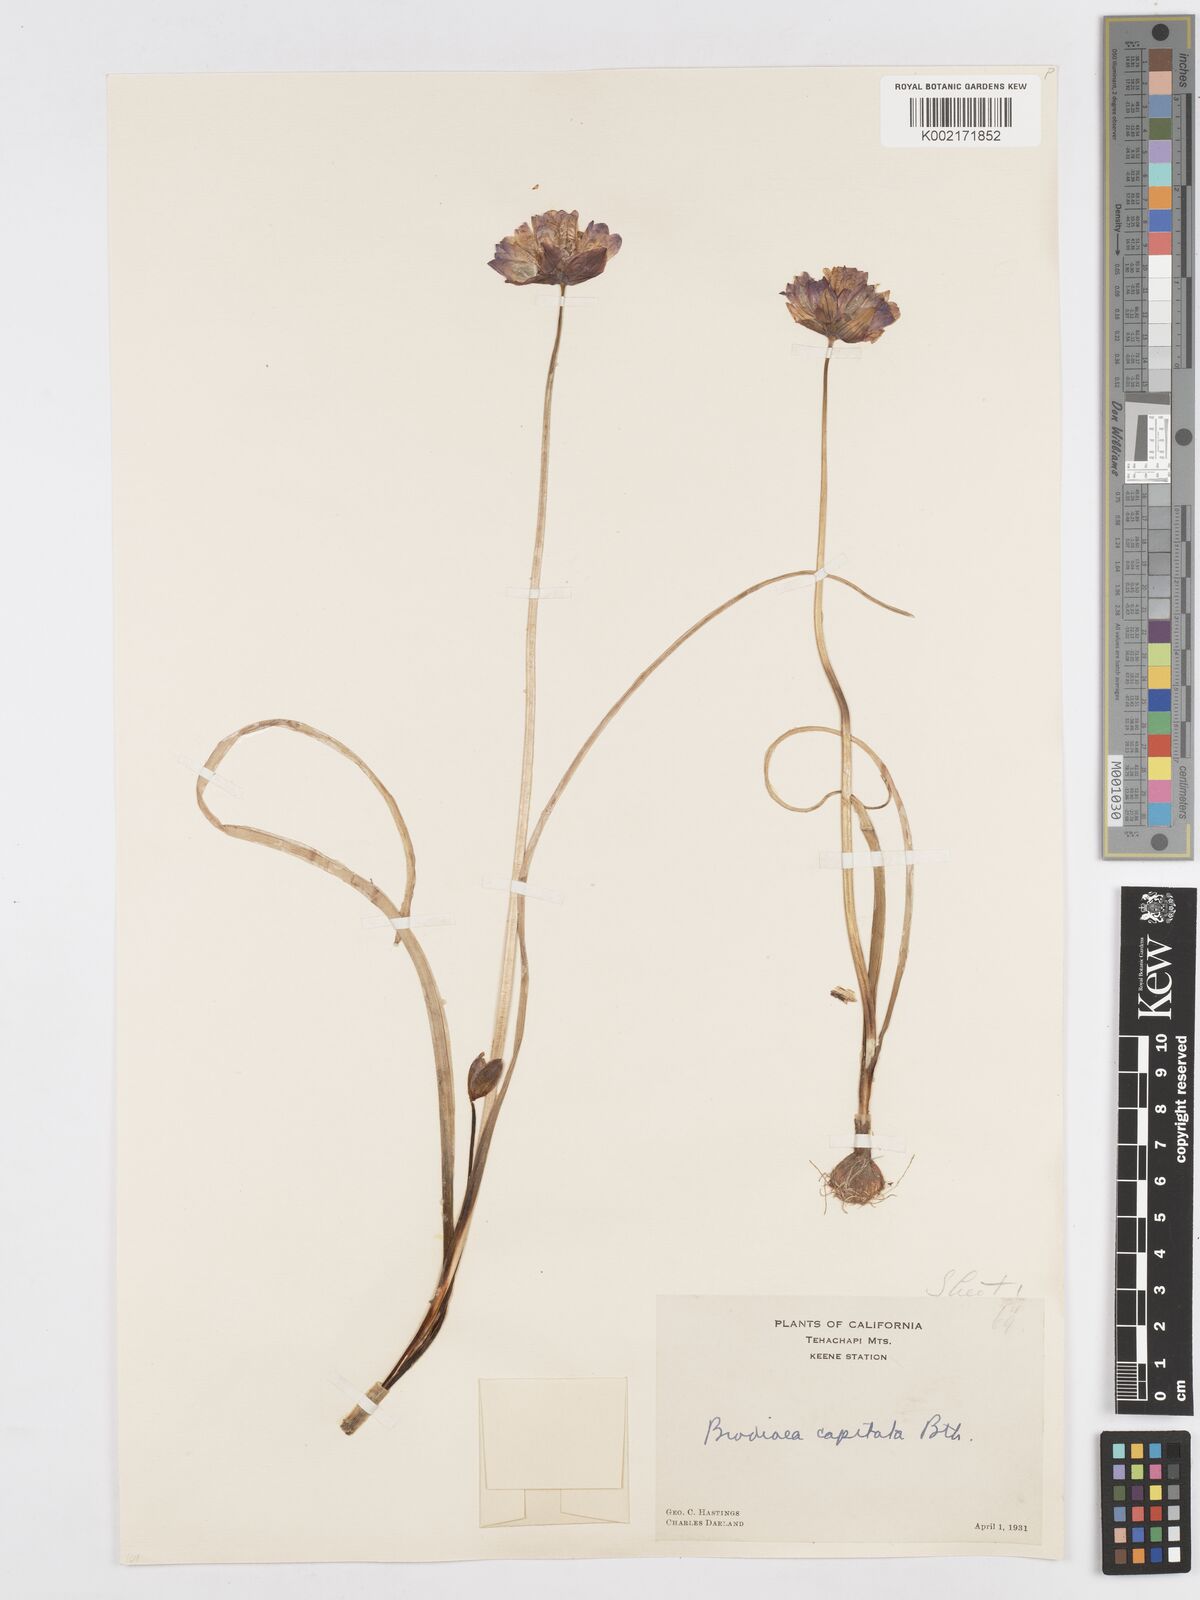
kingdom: Plantae
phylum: Tracheophyta
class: Liliopsida
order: Asparagales
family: Asparagaceae
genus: Dichelostemma
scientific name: Dichelostemma congestum
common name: Fork-tooth ookow
